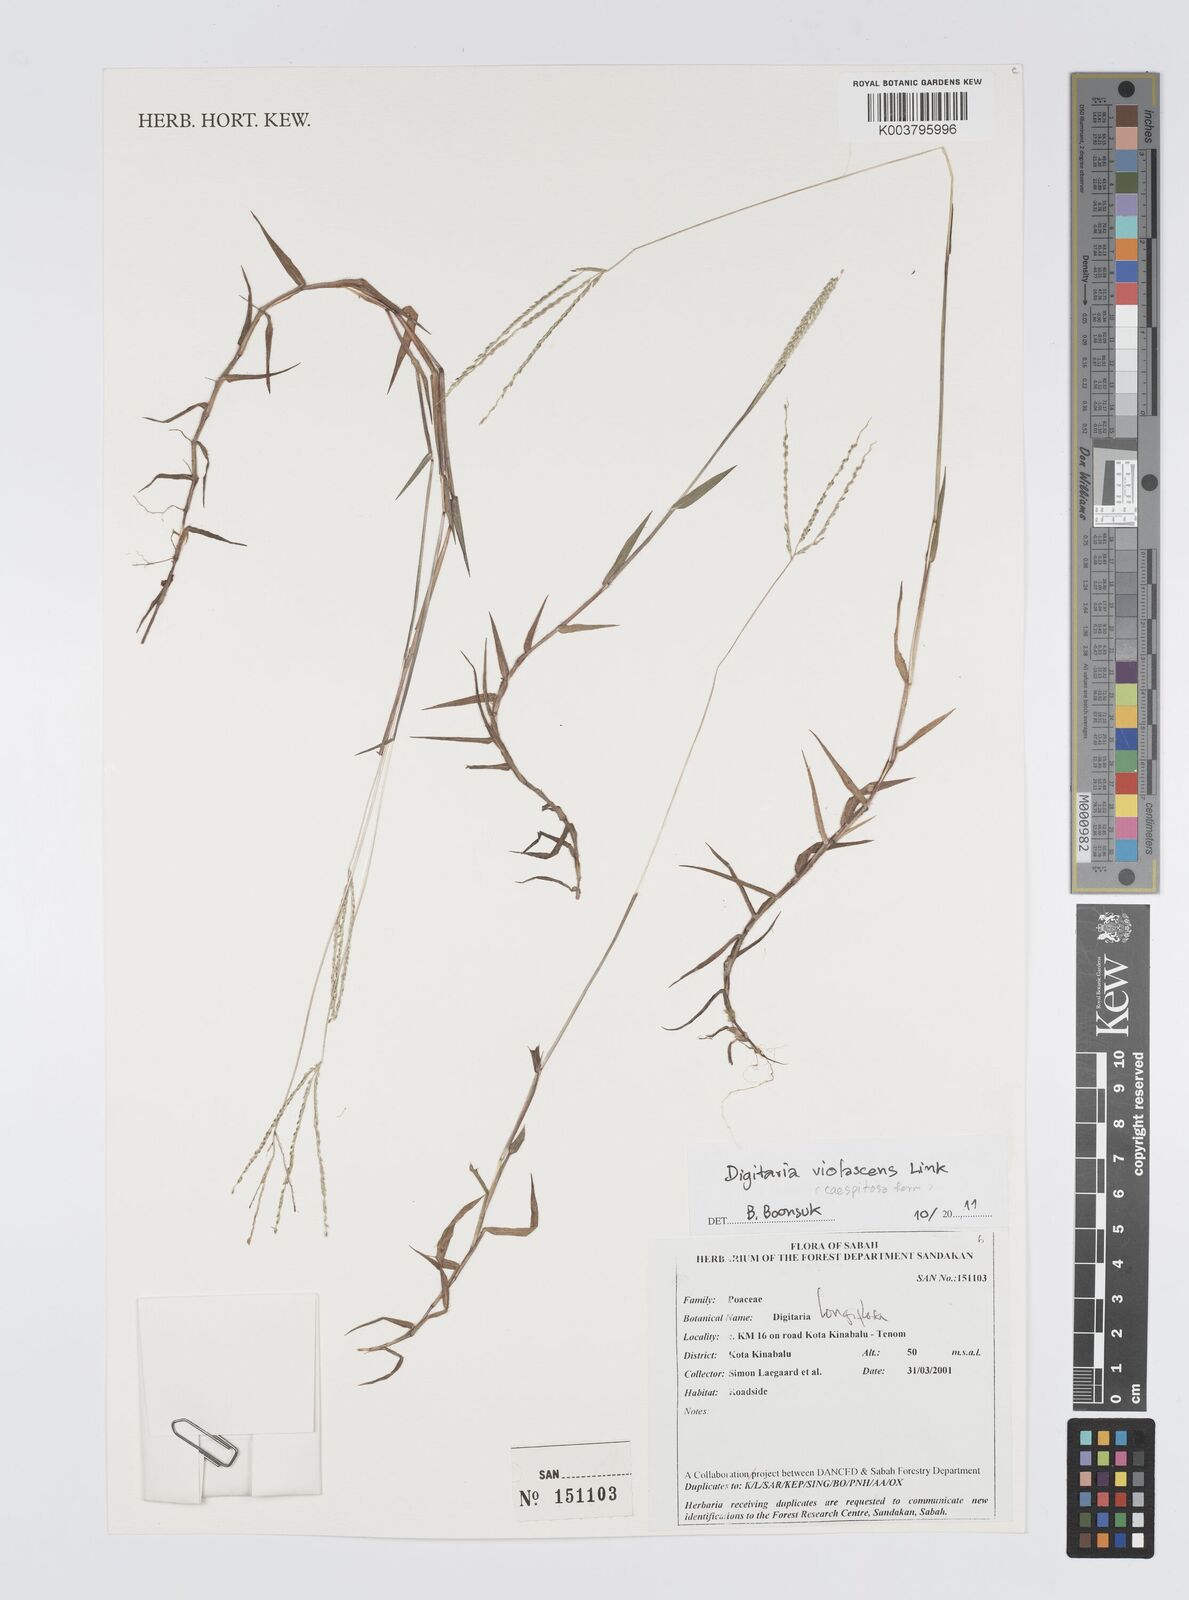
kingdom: Plantae
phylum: Tracheophyta
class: Liliopsida
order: Poales
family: Poaceae
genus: Digitaria
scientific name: Digitaria violascens
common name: Violet crabgrass
